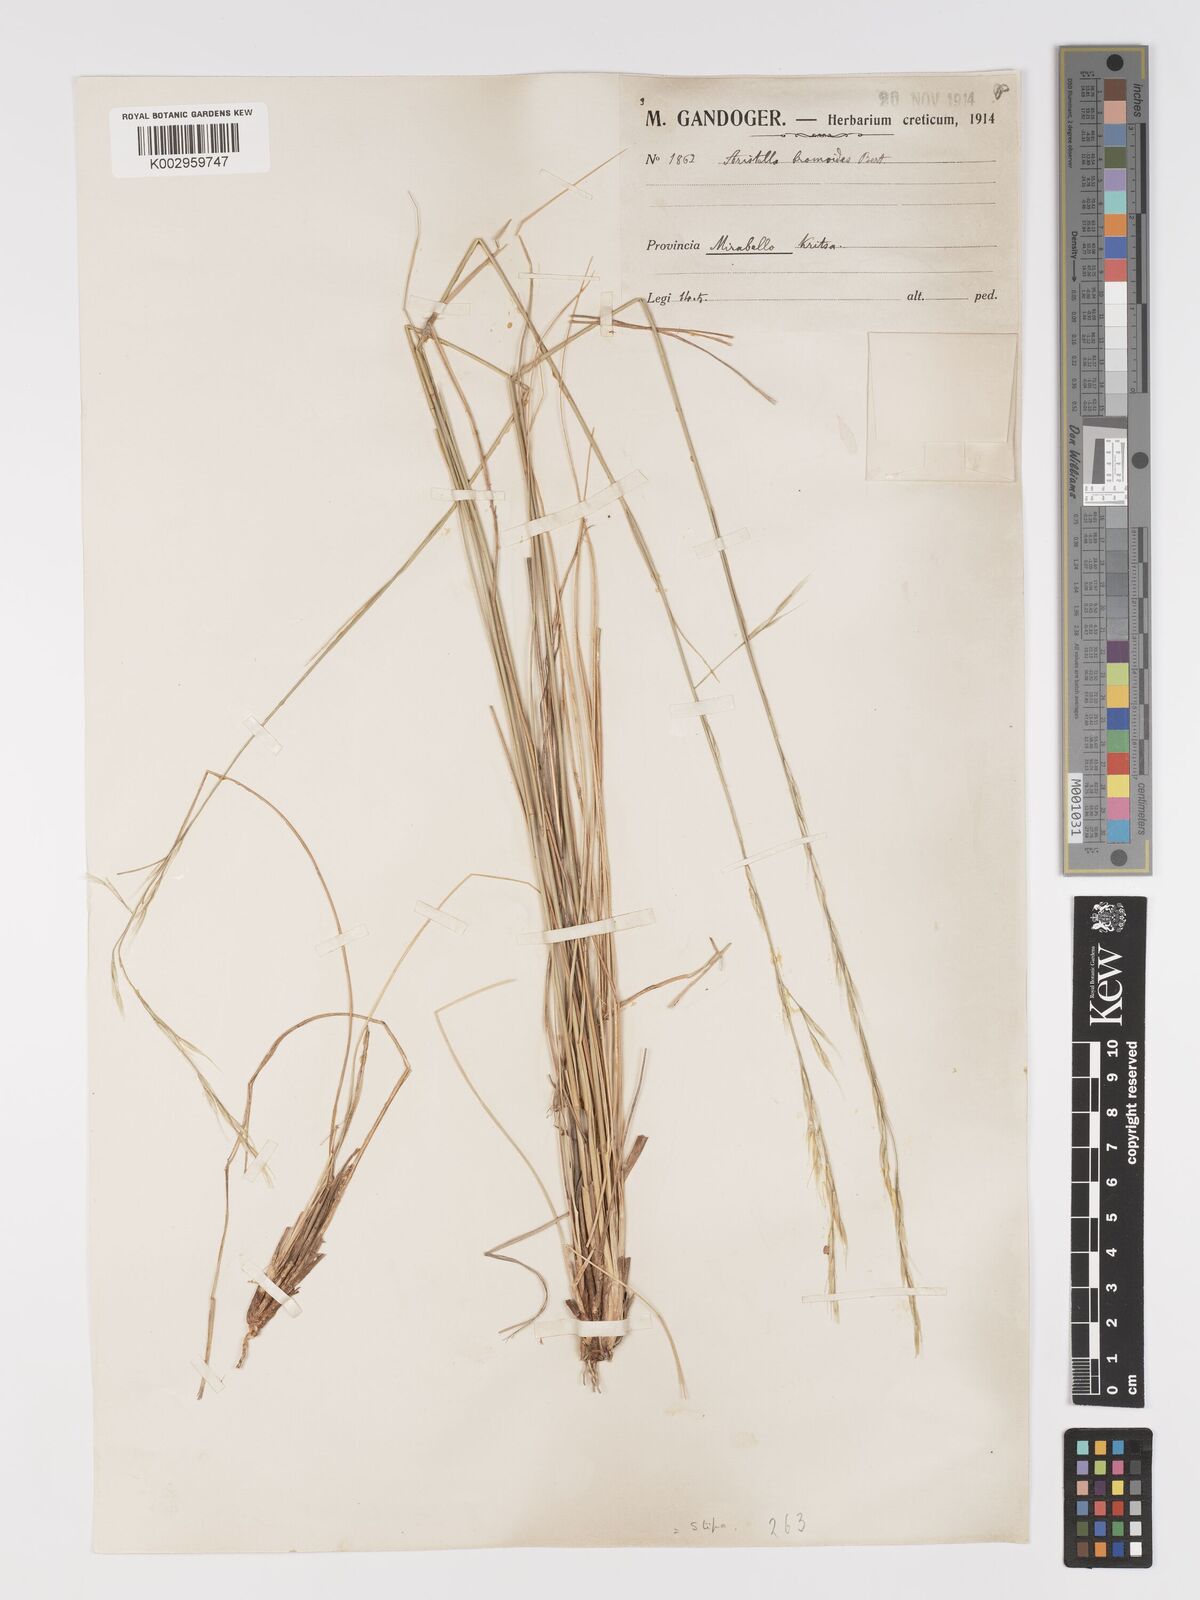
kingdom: Plantae
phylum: Tracheophyta
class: Liliopsida
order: Poales
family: Poaceae
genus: Achnatherum
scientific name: Achnatherum bromoides
